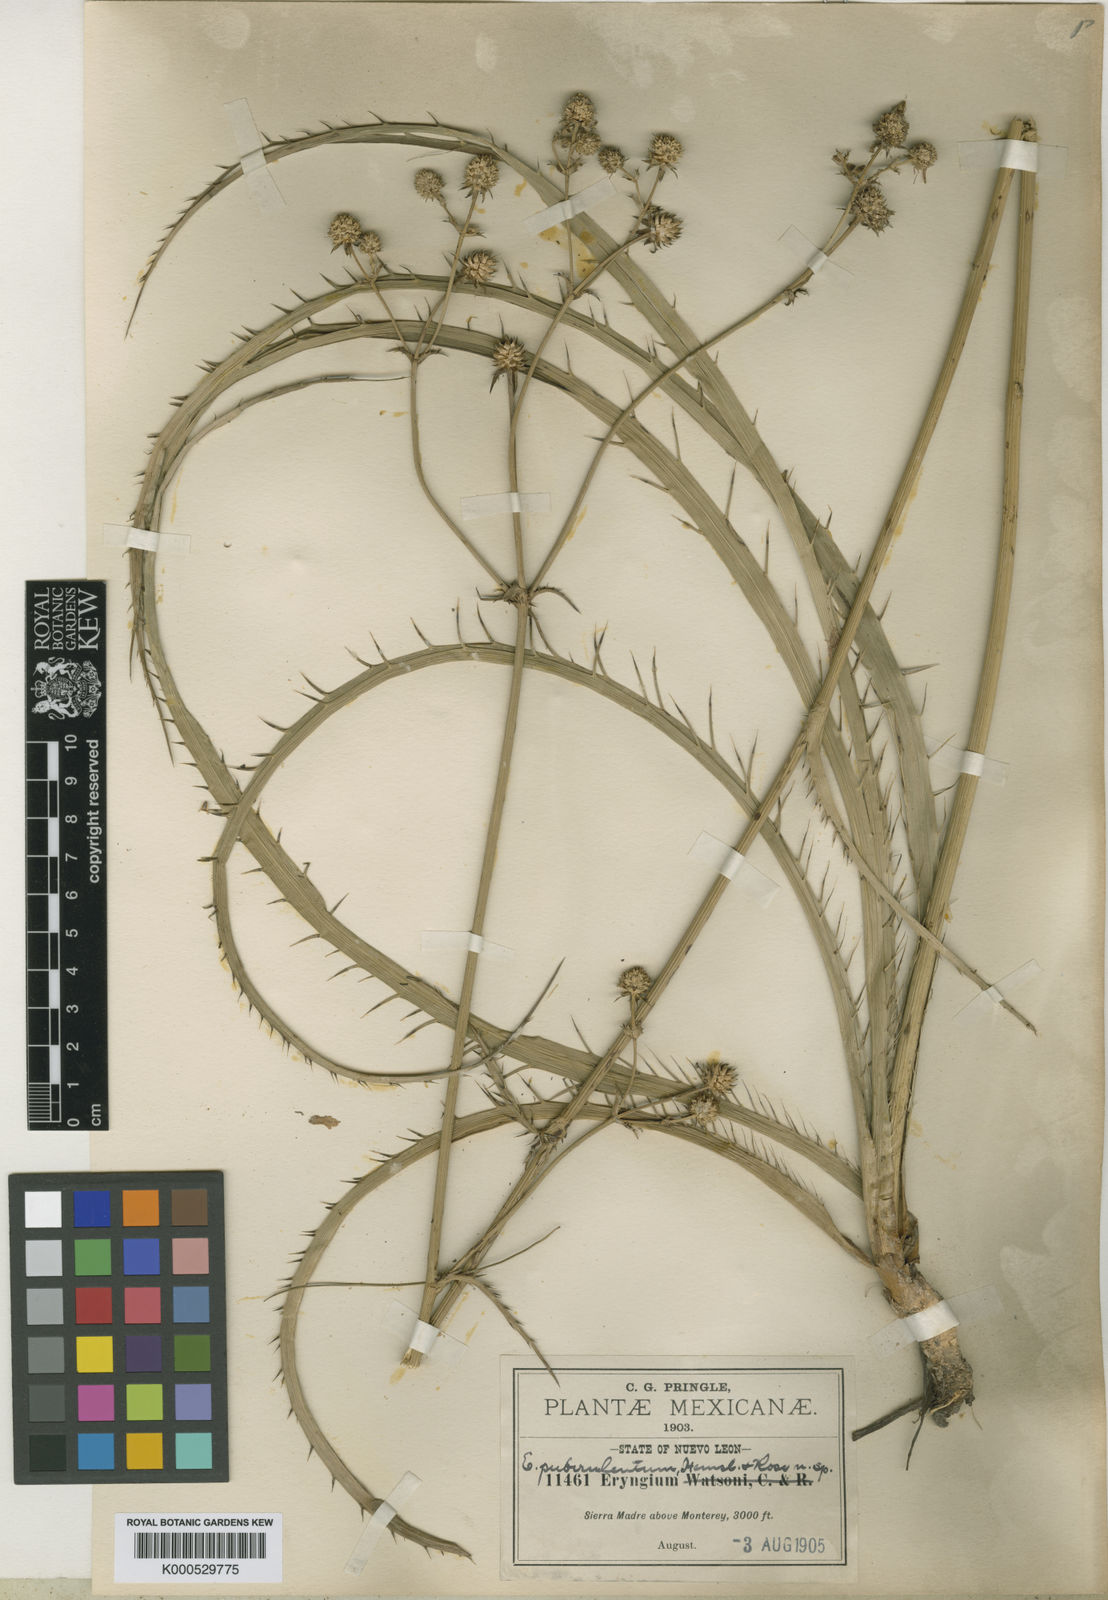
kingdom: Plantae
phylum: Tracheophyta
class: Magnoliopsida
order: Apiales
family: Apiaceae
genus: Eryngium
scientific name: Eryngium gramineum
